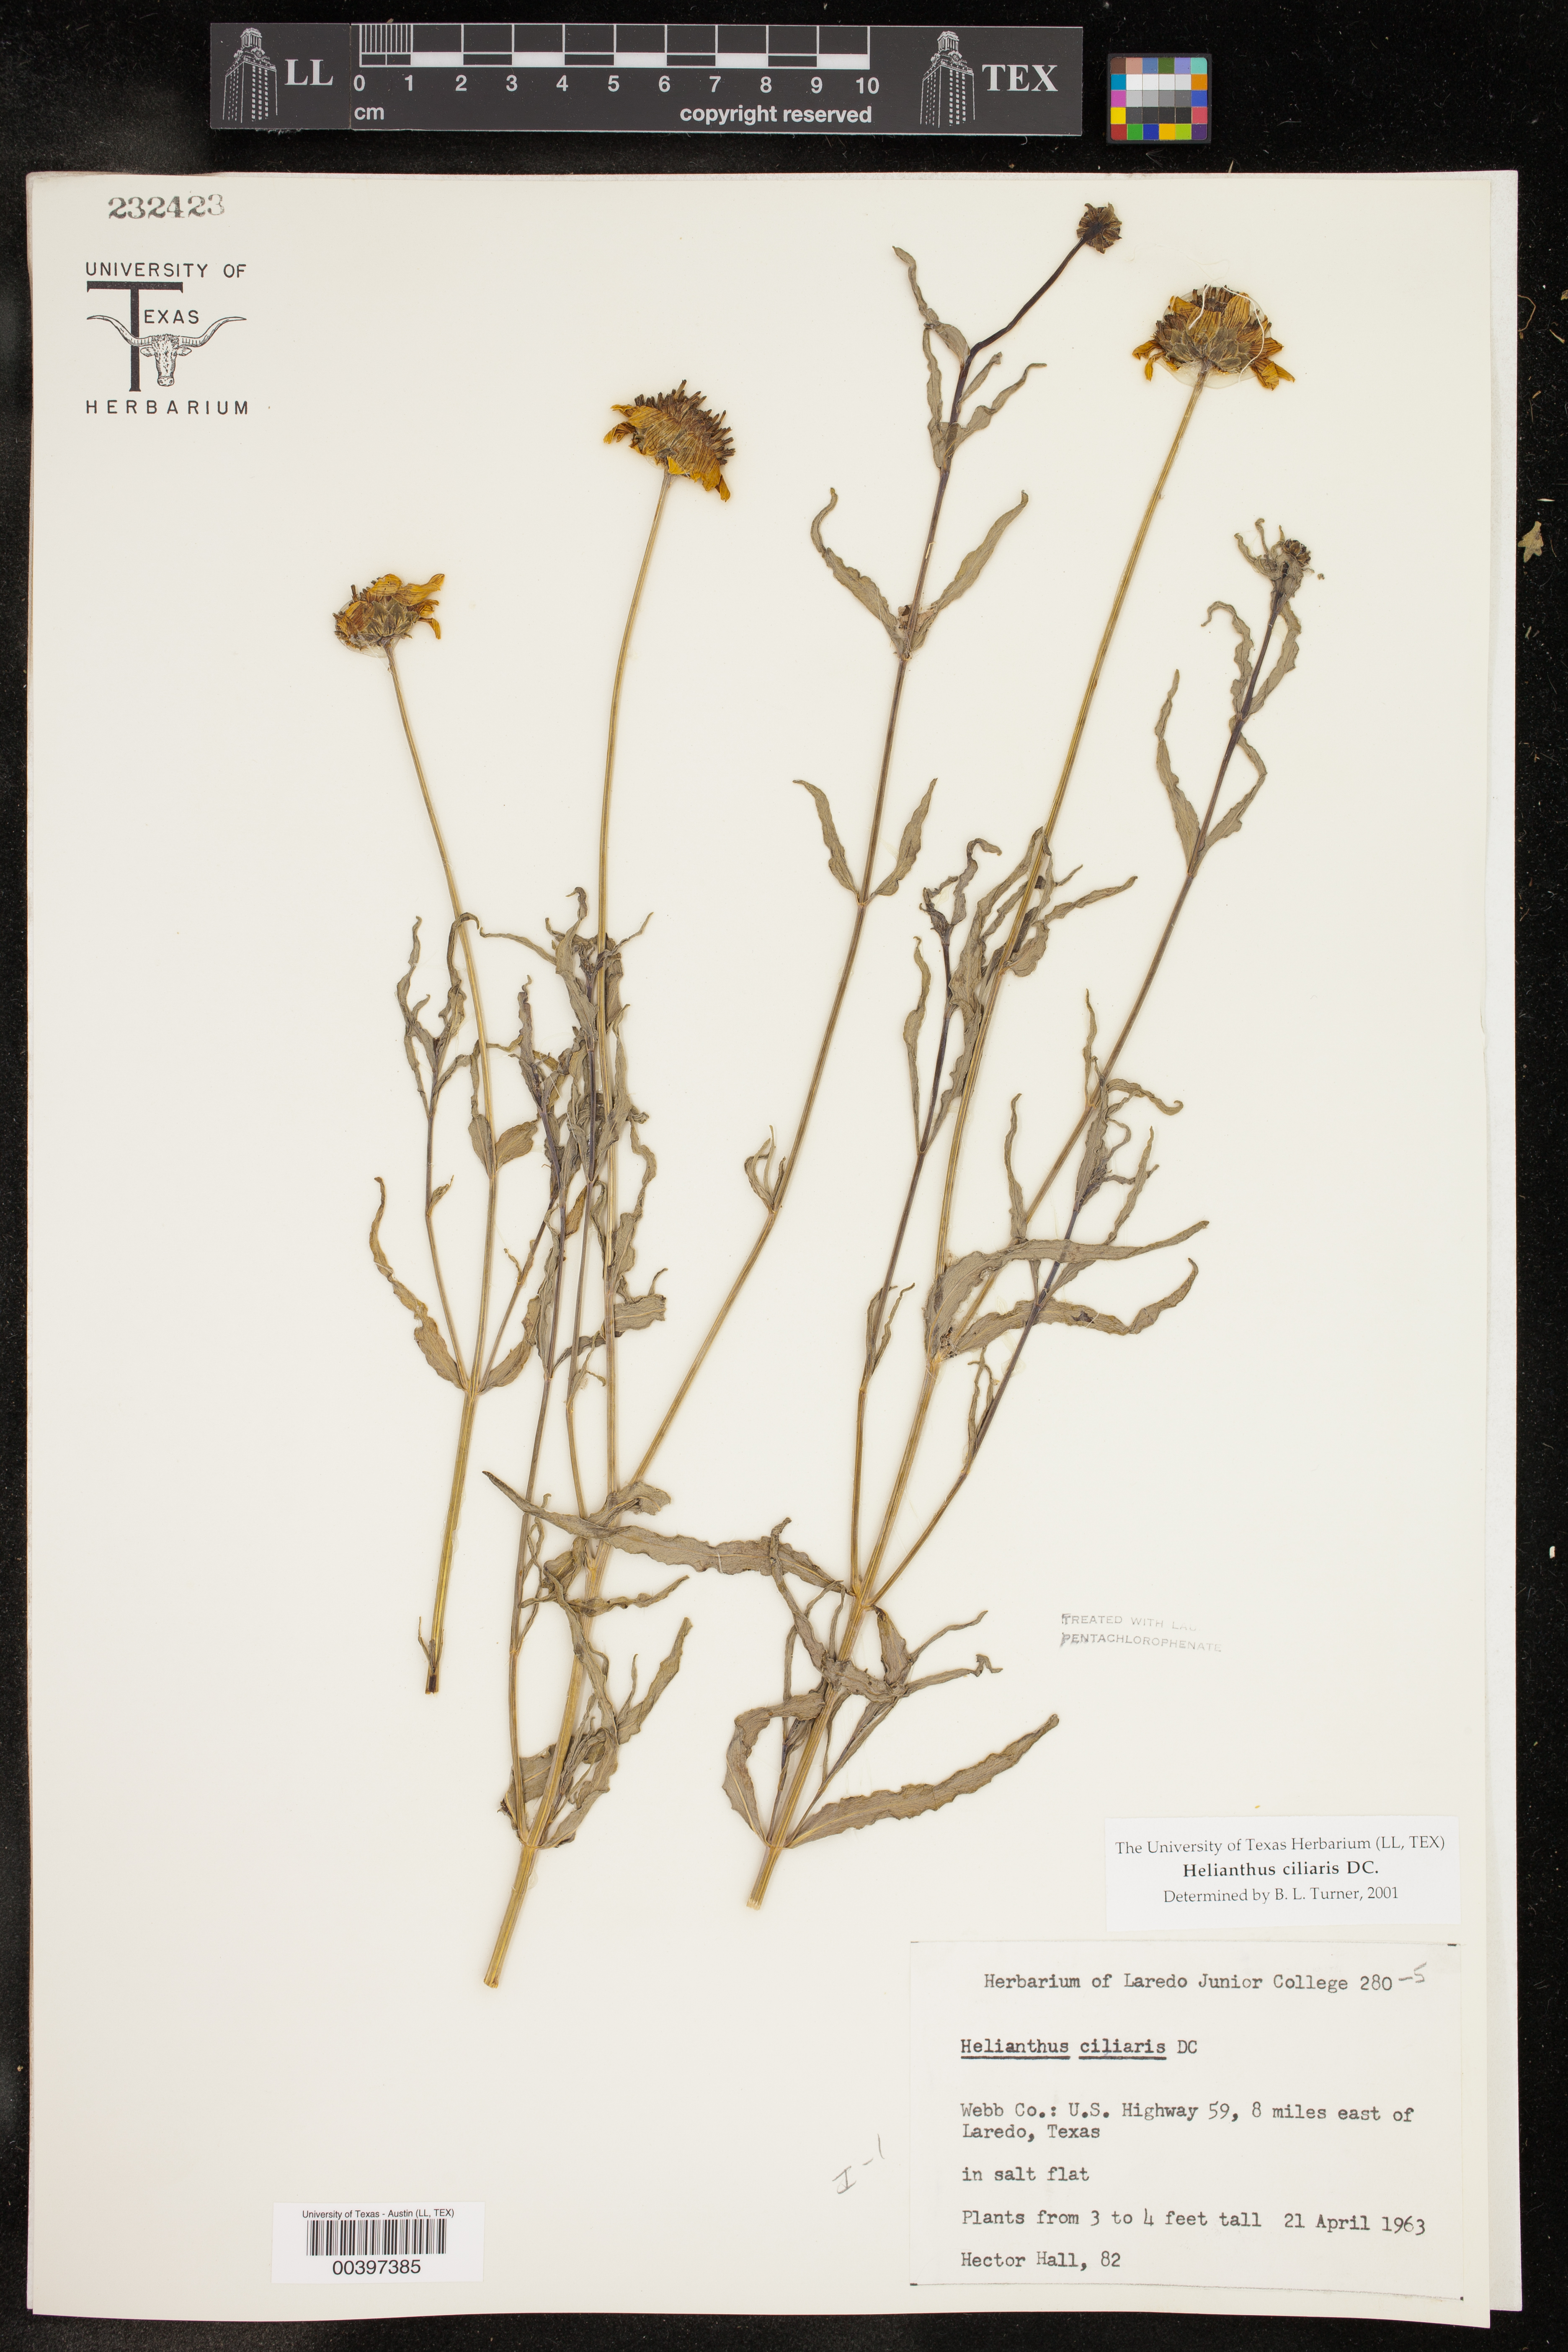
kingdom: Plantae
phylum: Tracheophyta
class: Magnoliopsida
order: Asterales
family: Asteraceae
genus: Helianthus
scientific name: Helianthus ciliaris
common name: Texas blueweed
